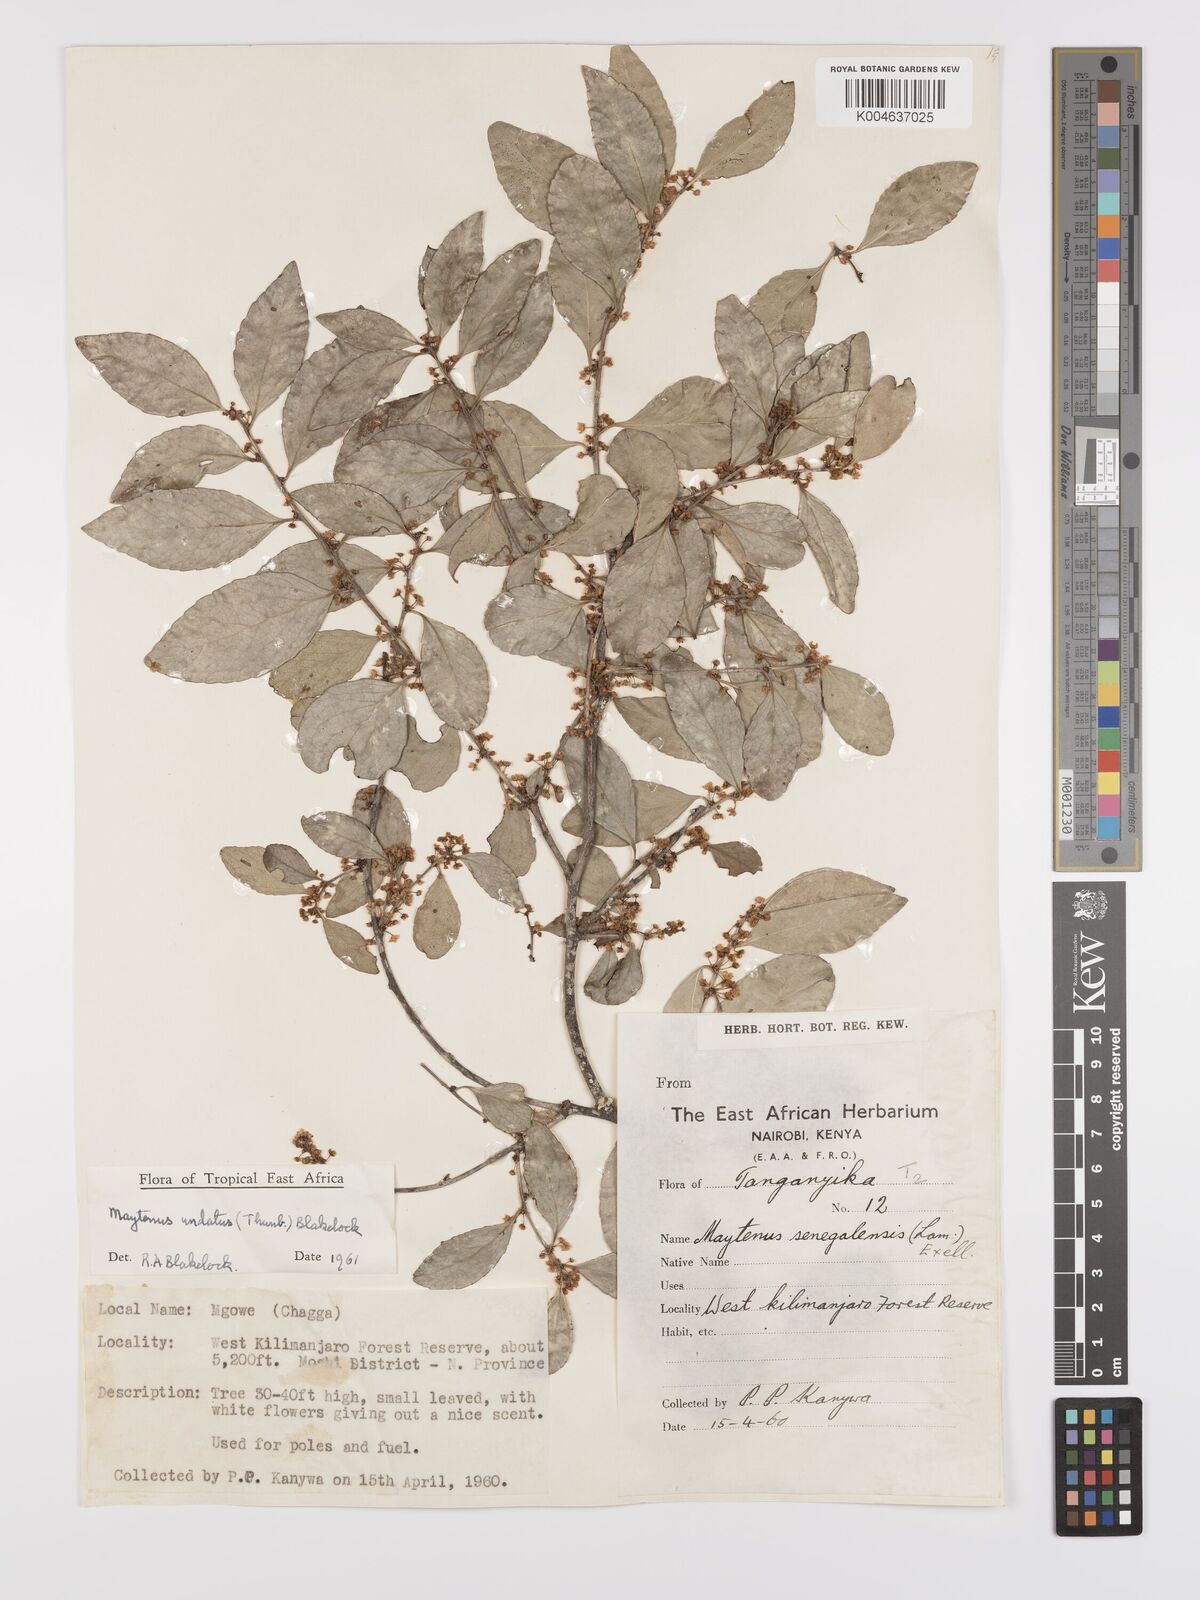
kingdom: Plantae
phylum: Tracheophyta
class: Magnoliopsida
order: Celastrales
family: Celastraceae
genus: Gymnosporia
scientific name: Gymnosporia undata
